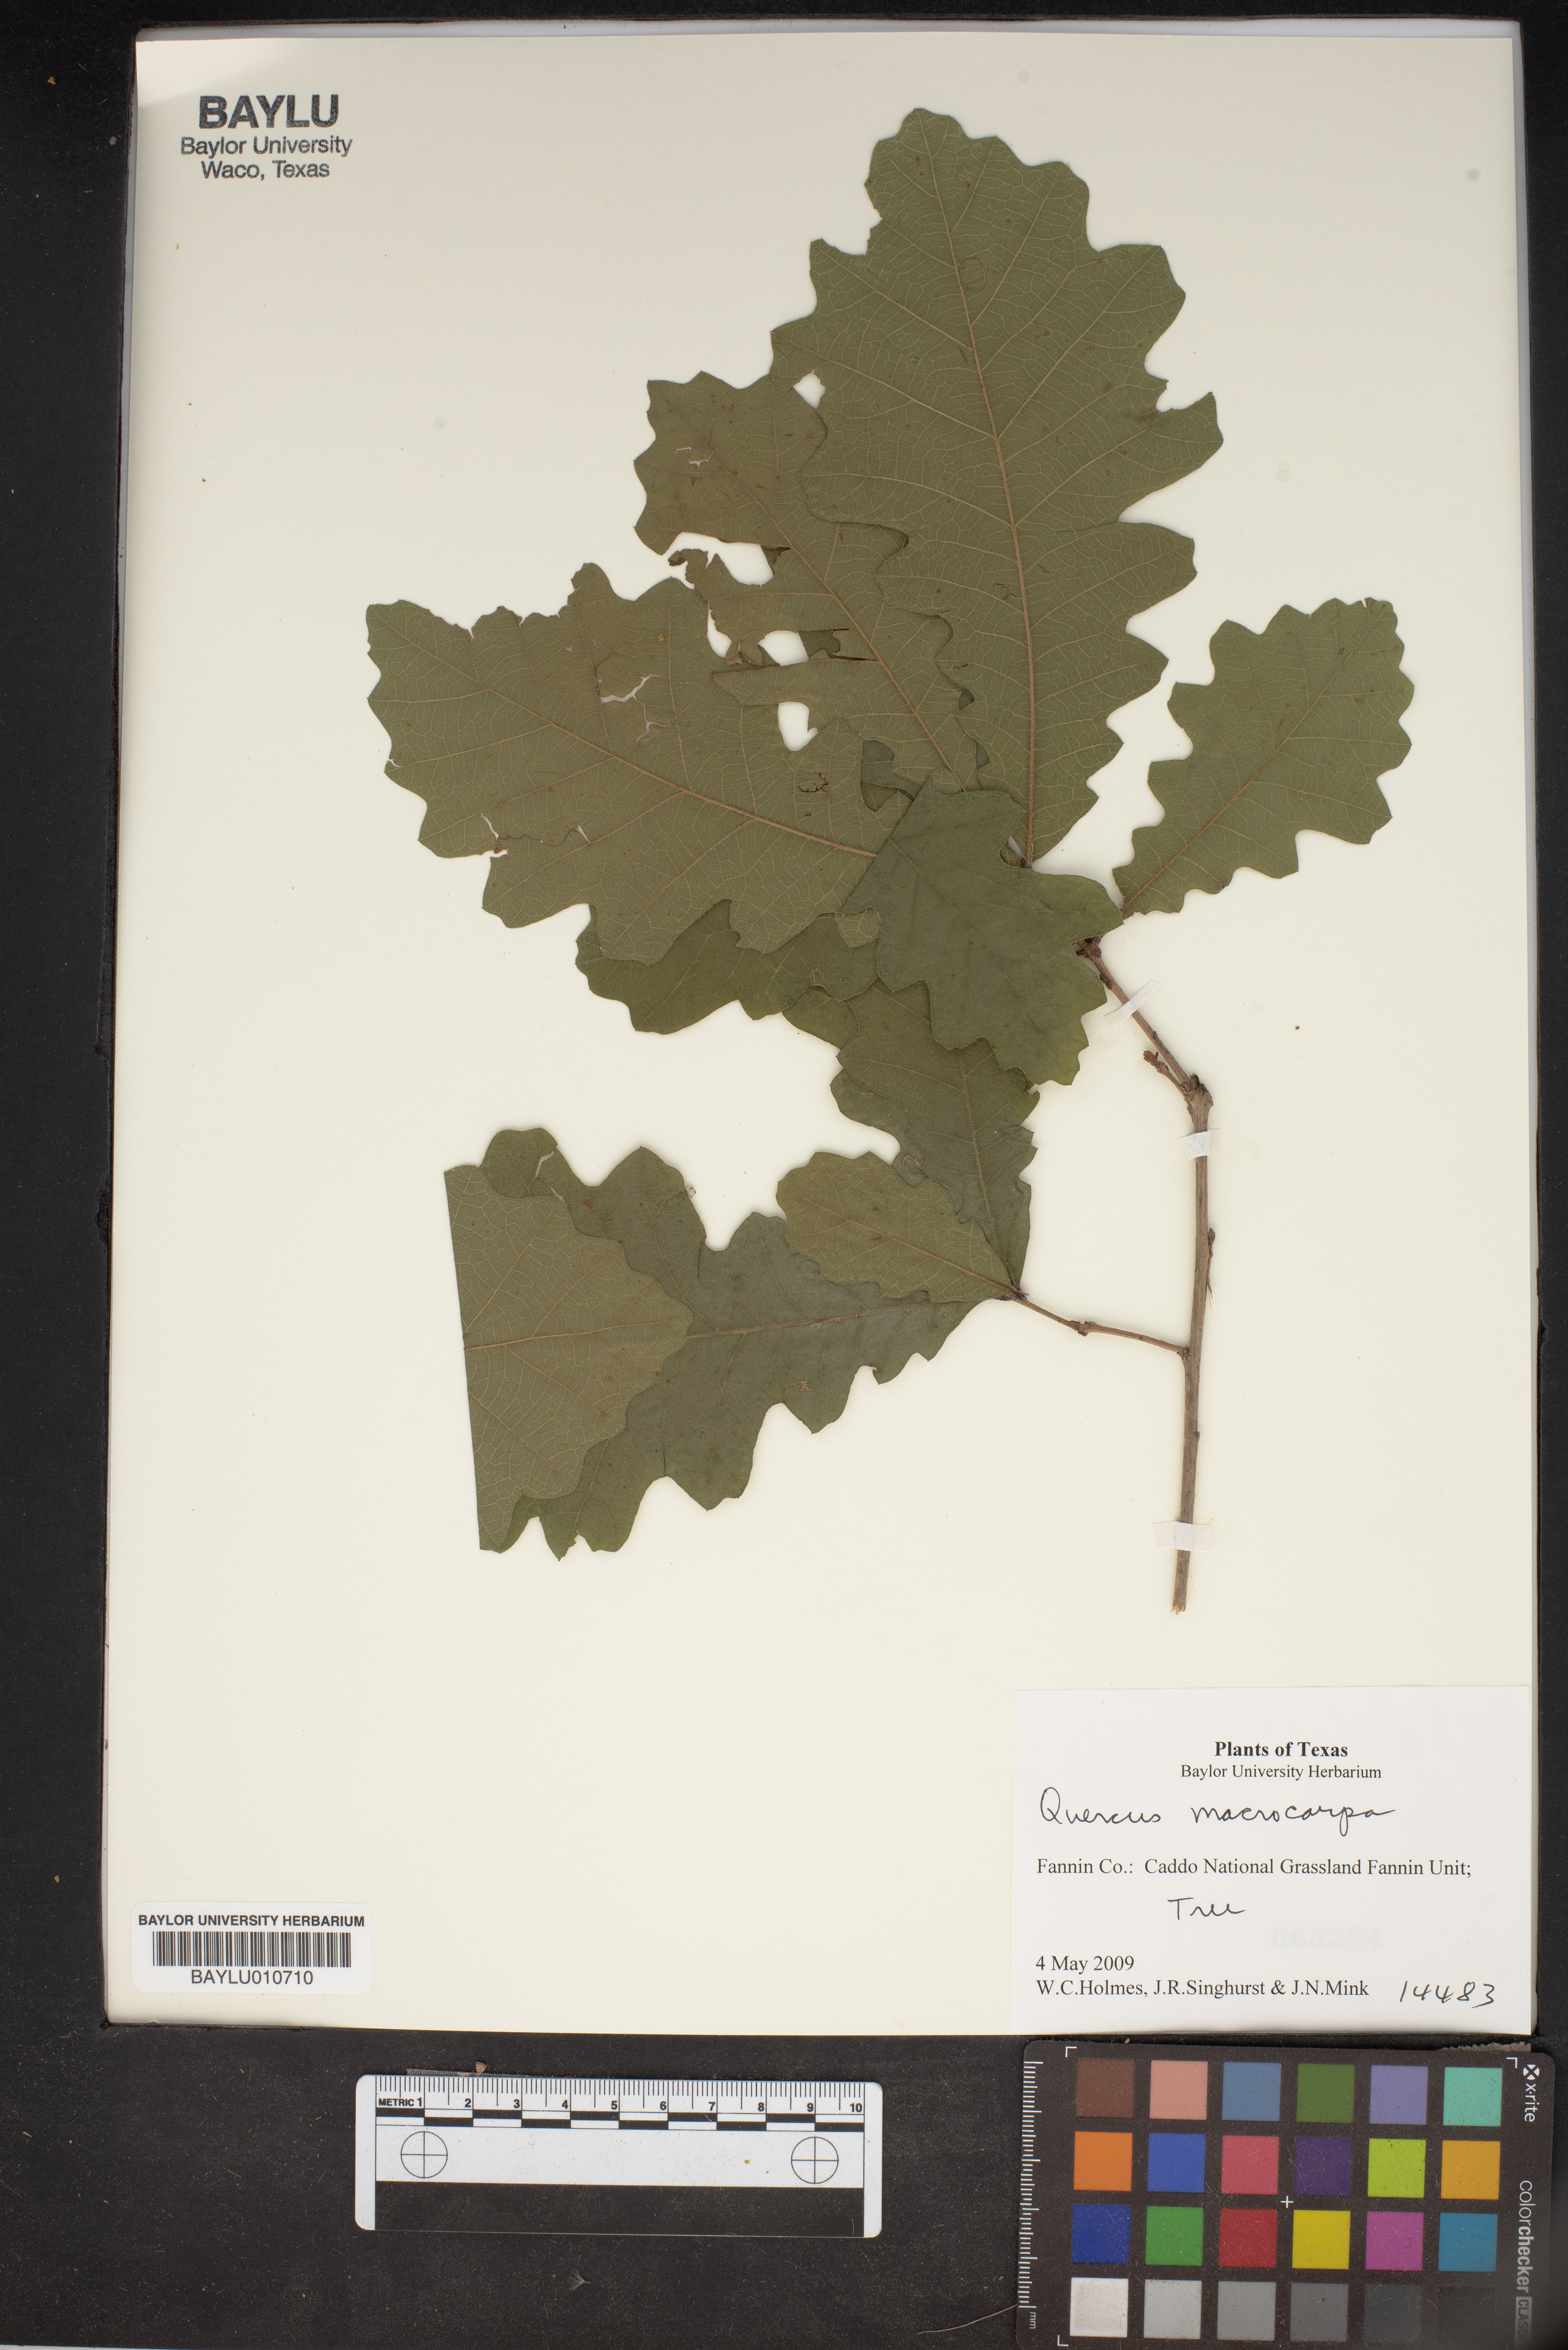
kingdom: Plantae
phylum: Tracheophyta
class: Magnoliopsida
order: Fagales
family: Fagaceae
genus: Quercus
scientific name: Quercus macrocarpa
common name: Bur oak
